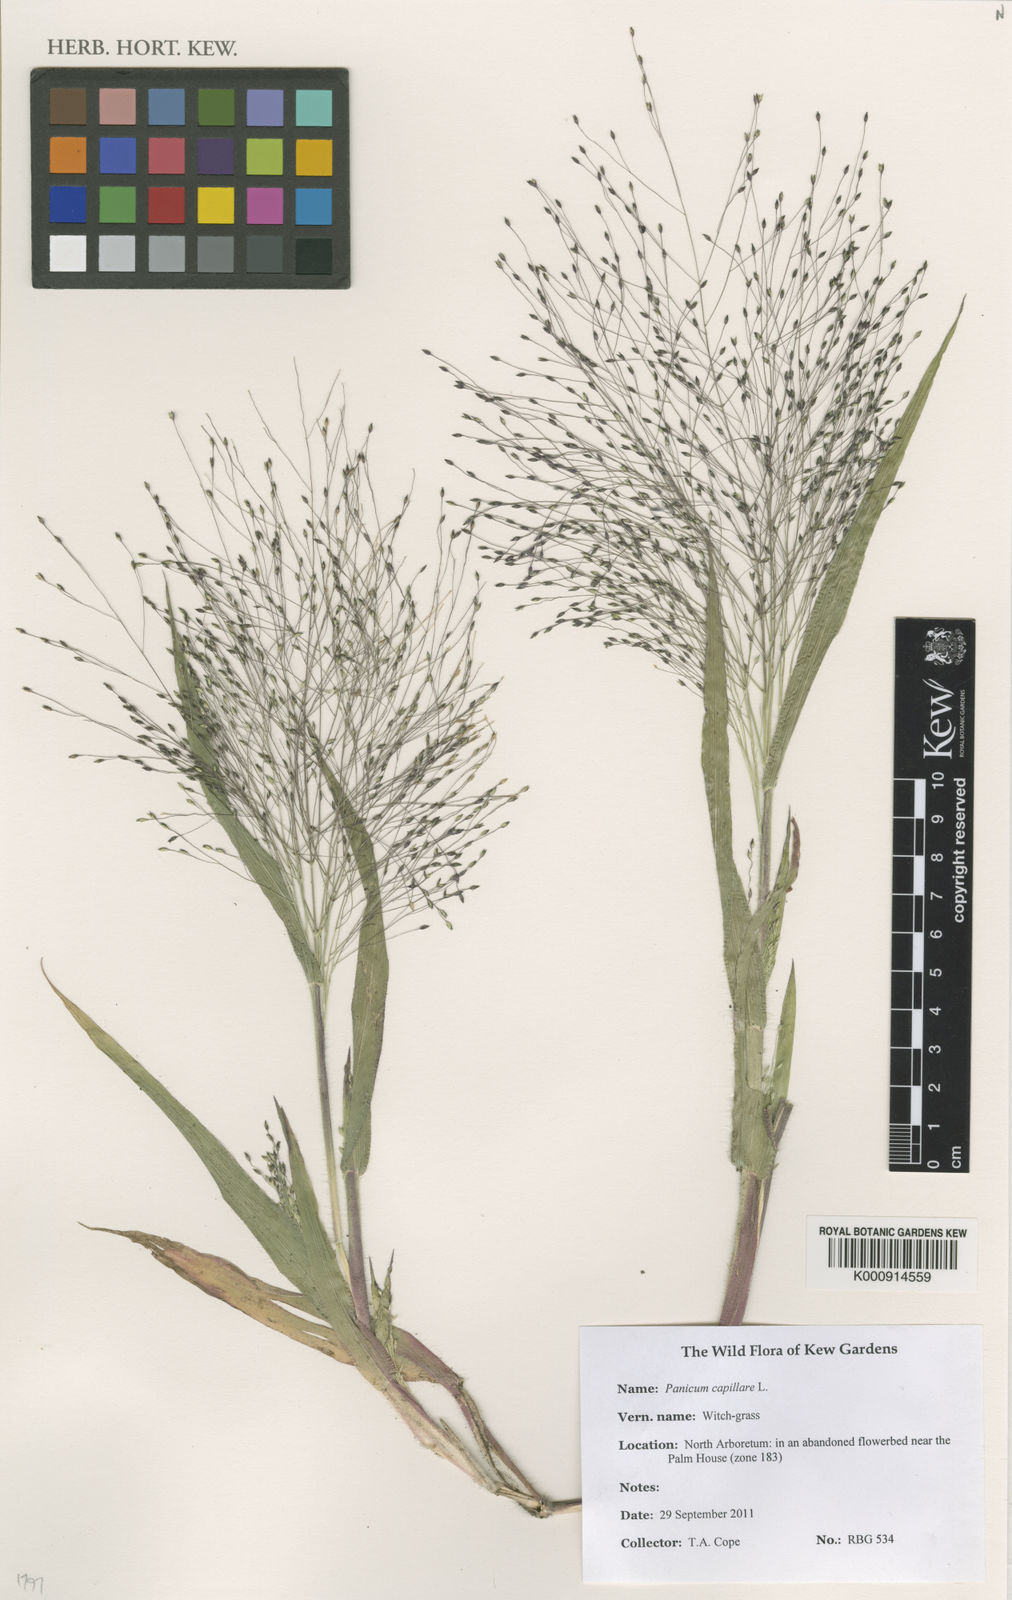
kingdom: Plantae
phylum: Tracheophyta
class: Liliopsida
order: Poales
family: Poaceae
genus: Panicum
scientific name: Panicum capillare
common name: Witch-grass
